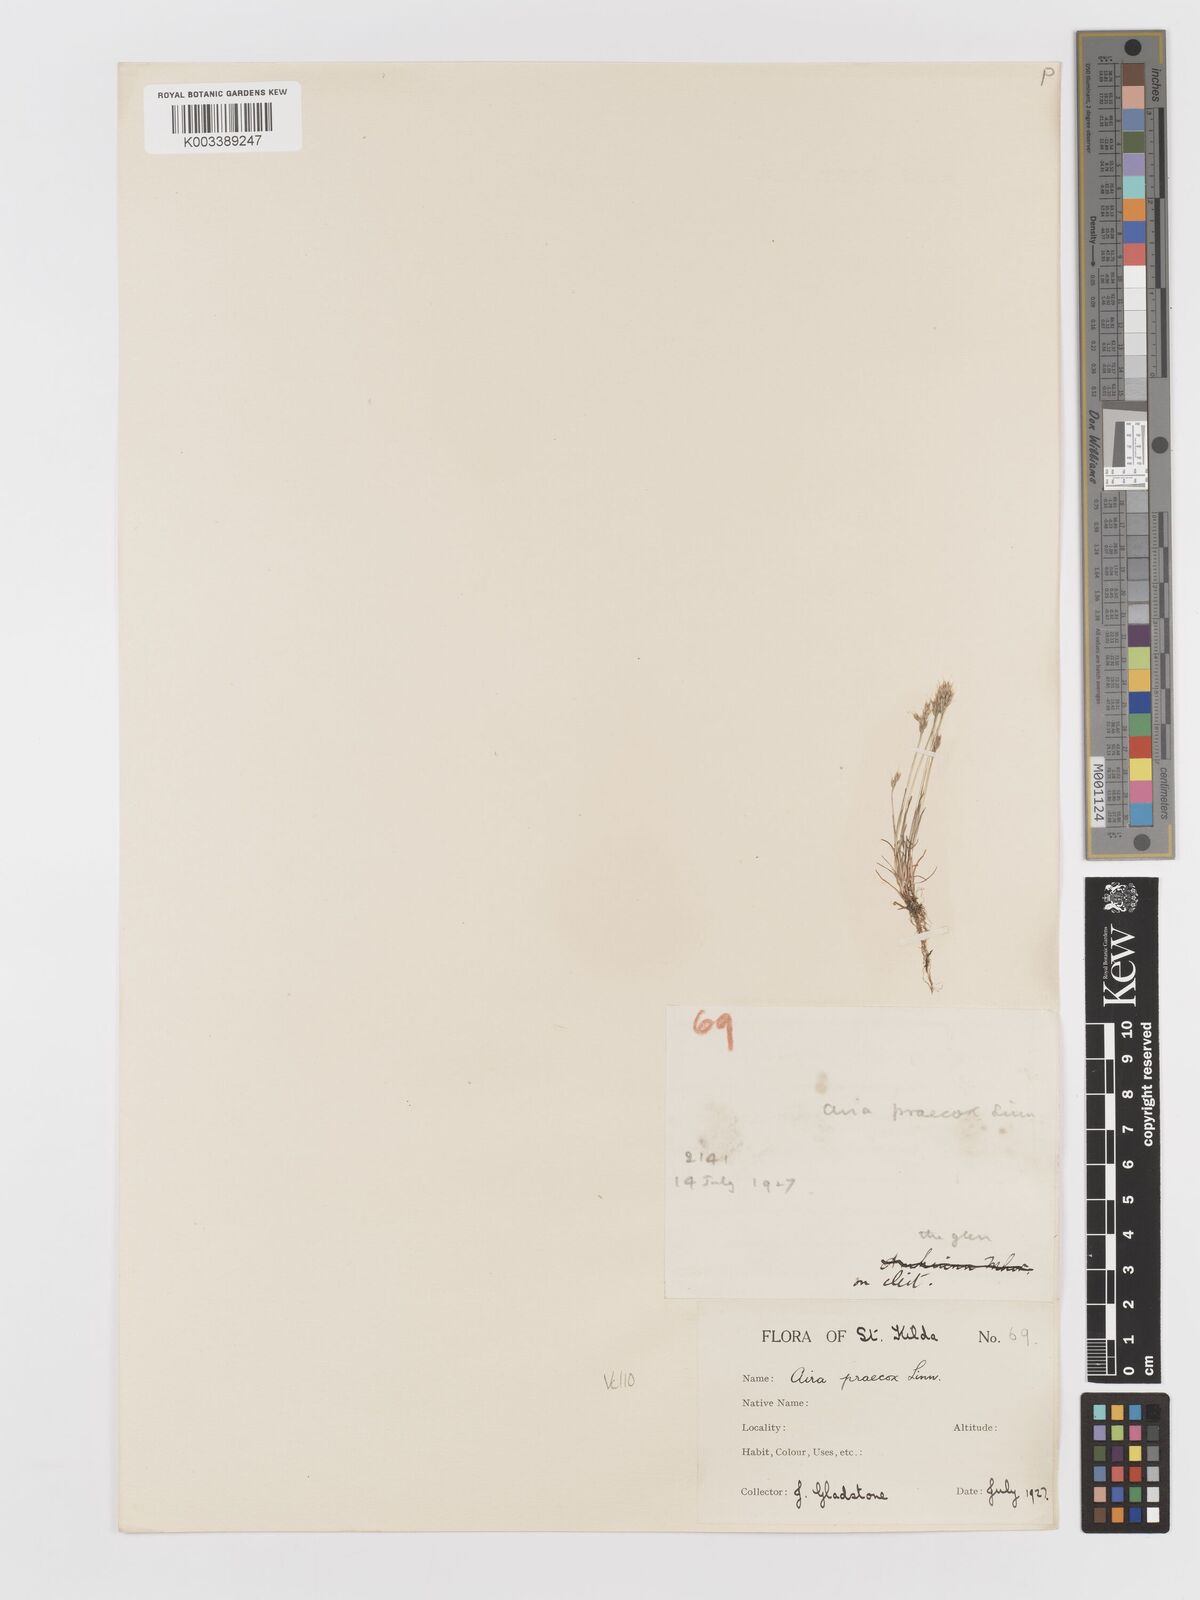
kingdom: Plantae
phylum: Tracheophyta
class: Liliopsida
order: Poales
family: Poaceae
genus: Aira
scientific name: Aira praecox
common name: Early hair-grass
